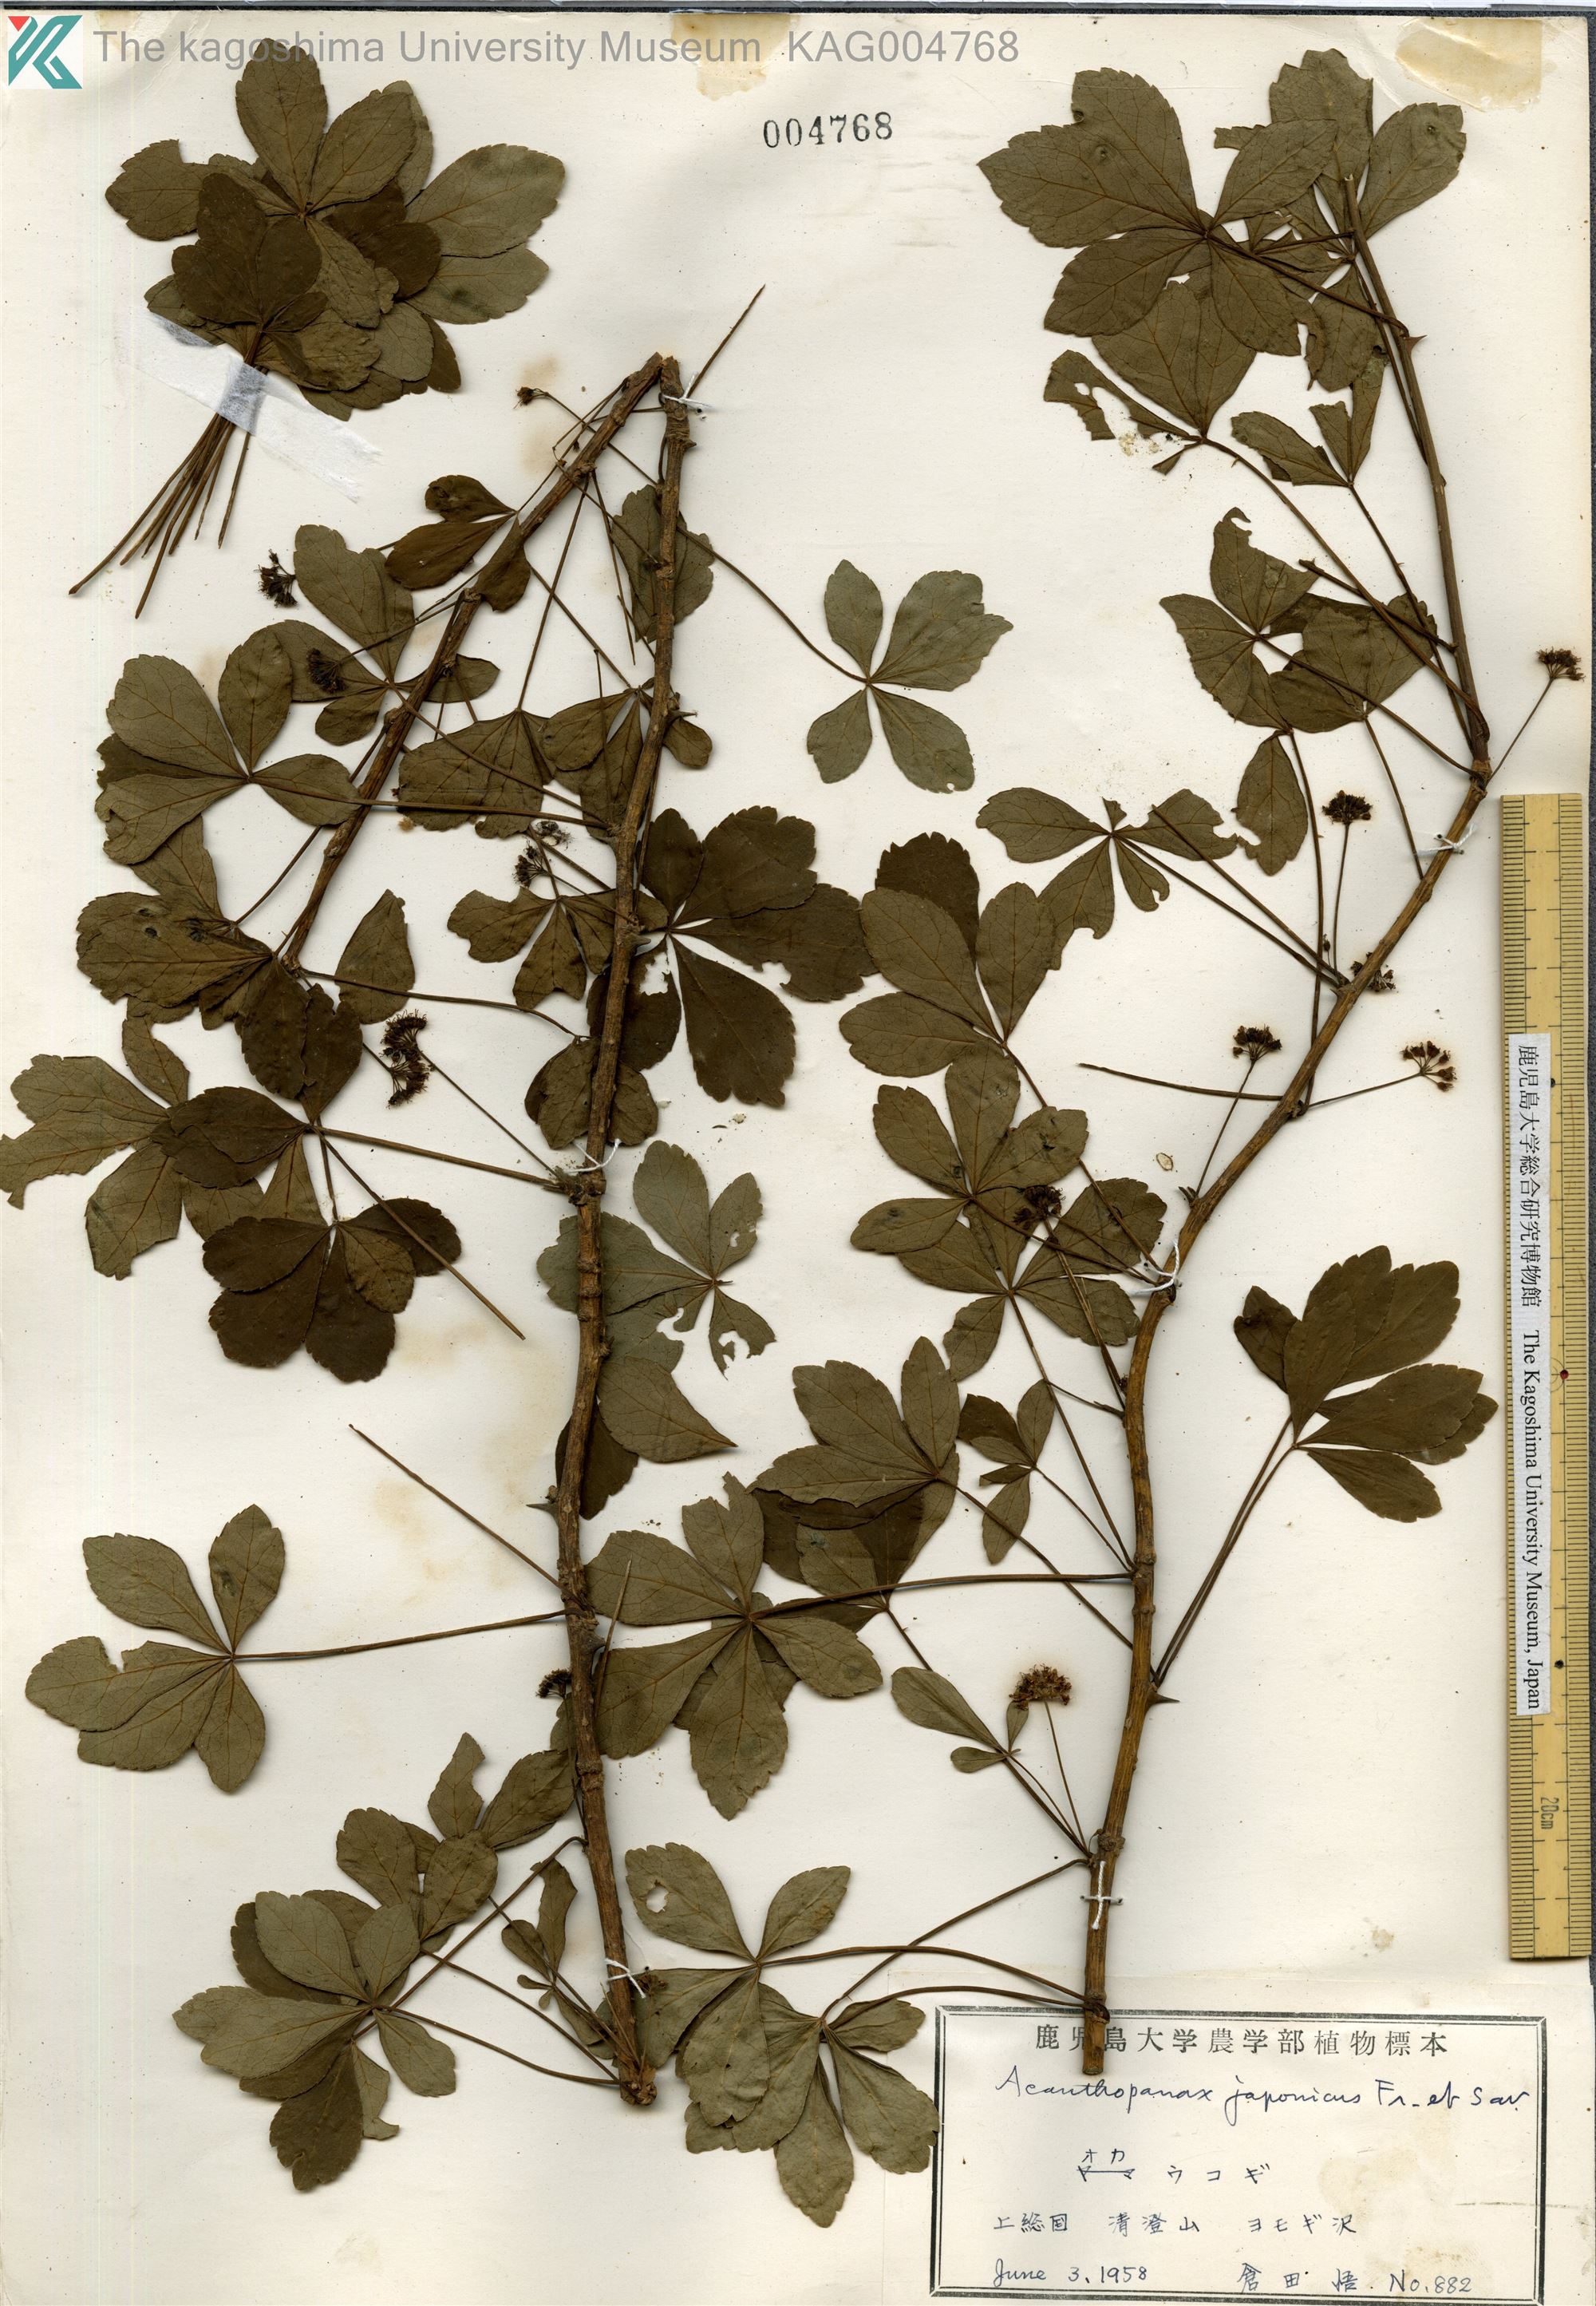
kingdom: Plantae
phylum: Tracheophyta
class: Magnoliopsida
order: Apiales
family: Araliaceae
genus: Eleutherococcus
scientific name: Eleutherococcus japonicus
